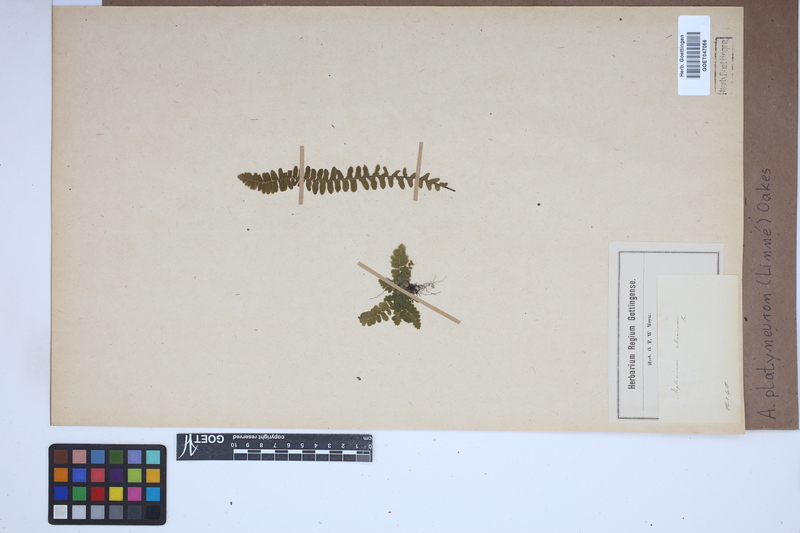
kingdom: Plantae
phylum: Tracheophyta
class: Polypodiopsida
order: Polypodiales
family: Aspleniaceae
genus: Asplenium
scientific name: Asplenium platyneuron
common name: Ebony spleenwort
